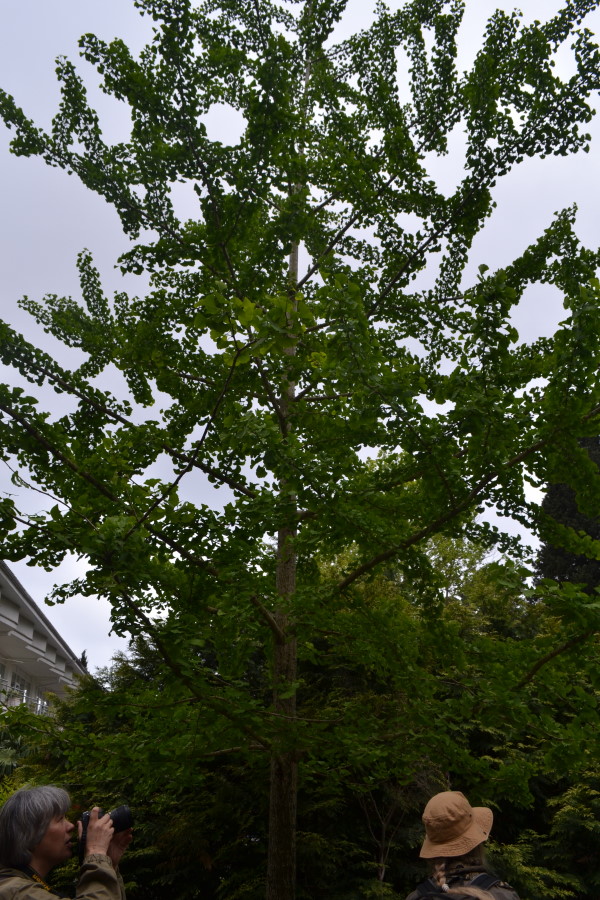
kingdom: Plantae
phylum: Tracheophyta
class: Ginkgoopsida
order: Ginkgoales
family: Ginkgoaceae
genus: Ginkgo
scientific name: Ginkgo biloba
